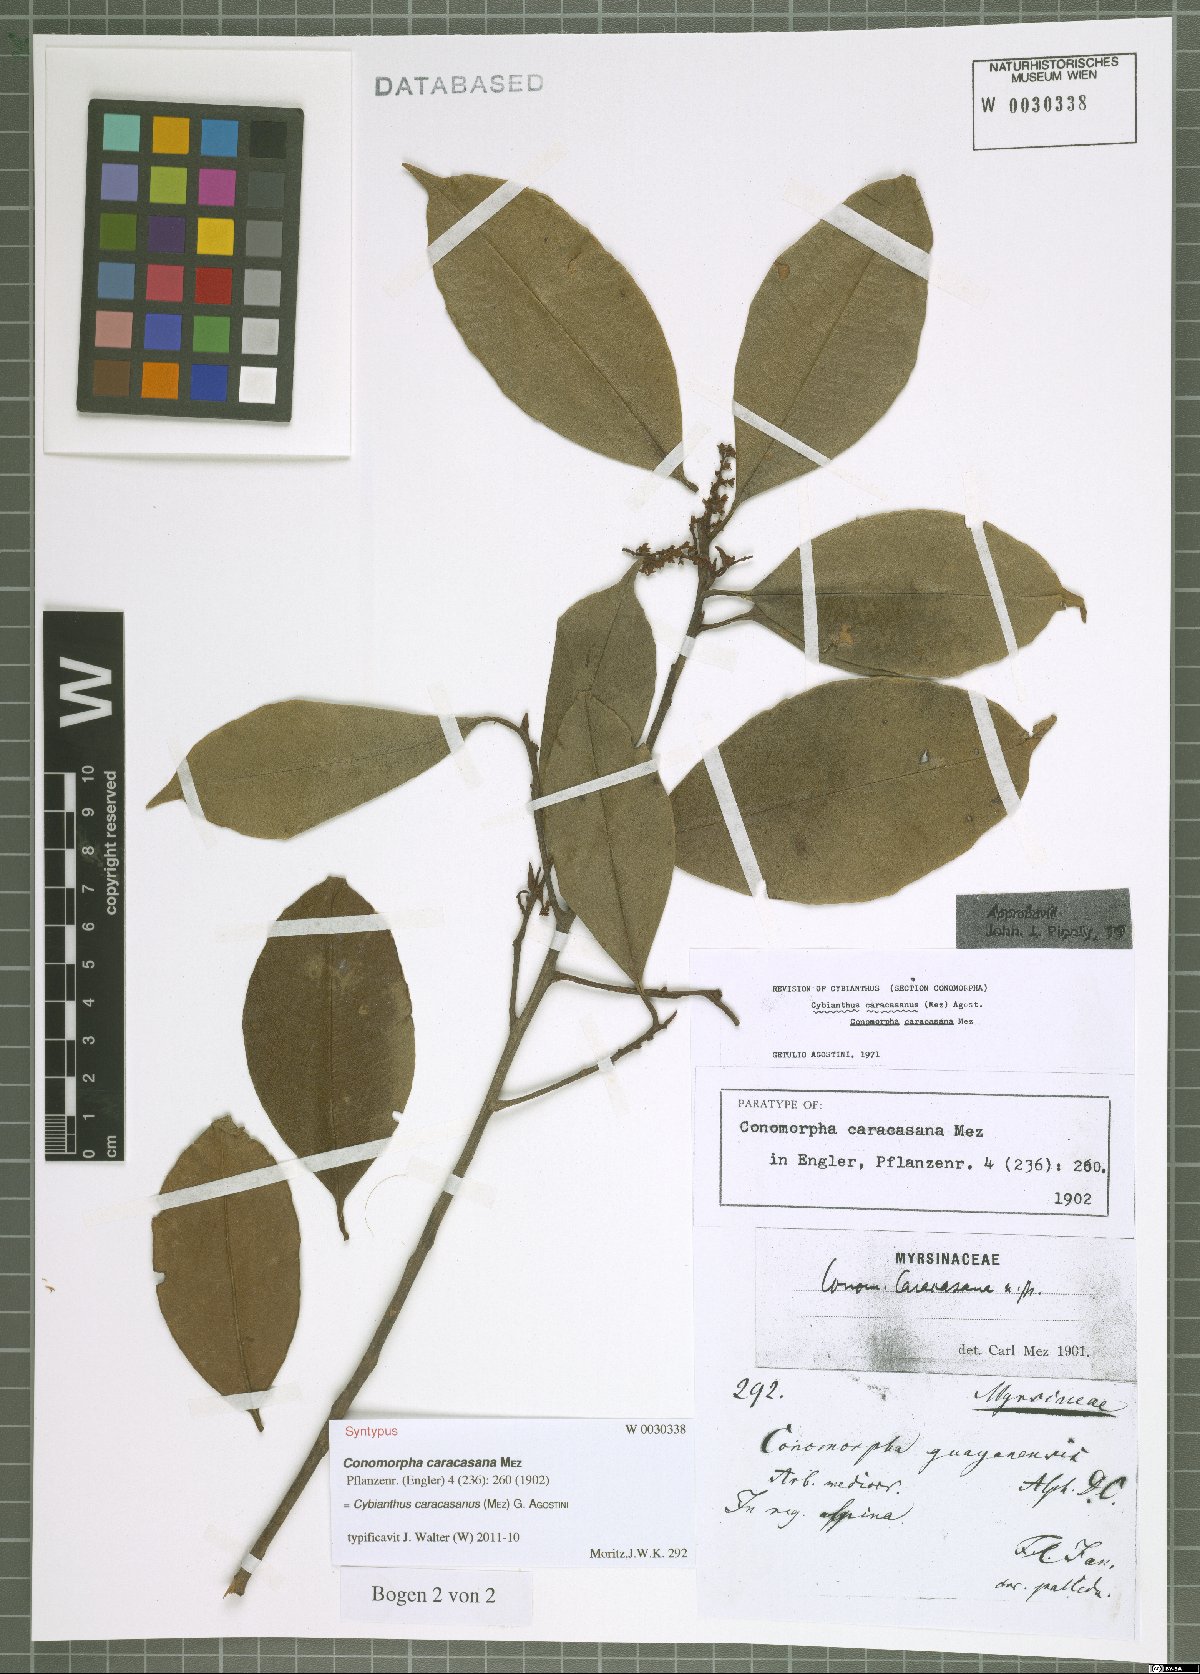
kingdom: Plantae
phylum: Tracheophyta
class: Magnoliopsida
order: Ericales
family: Primulaceae
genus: Cybianthus
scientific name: Cybianthus caracasanus
